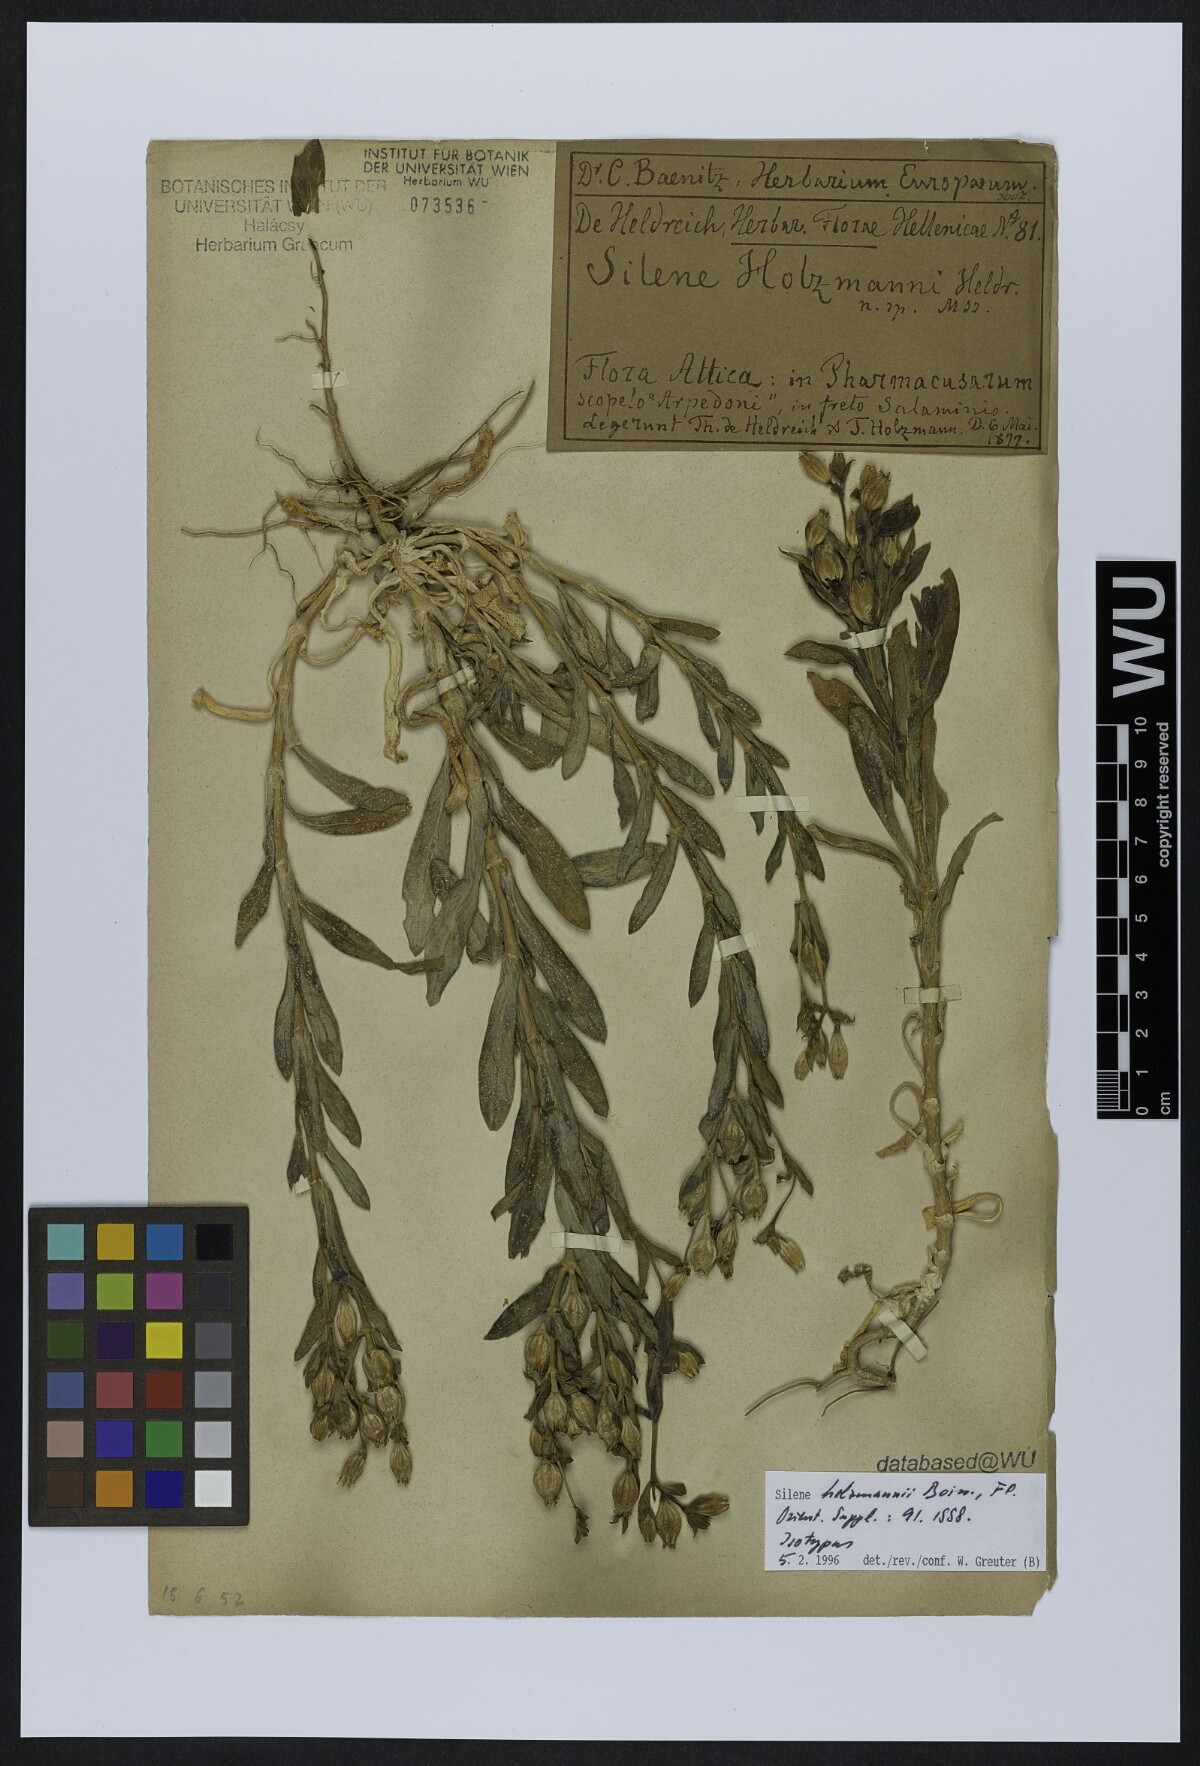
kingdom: Plantae
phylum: Tracheophyta
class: Magnoliopsida
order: Caryophyllales
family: Caryophyllaceae
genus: Silene
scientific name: Silene holzmannii
